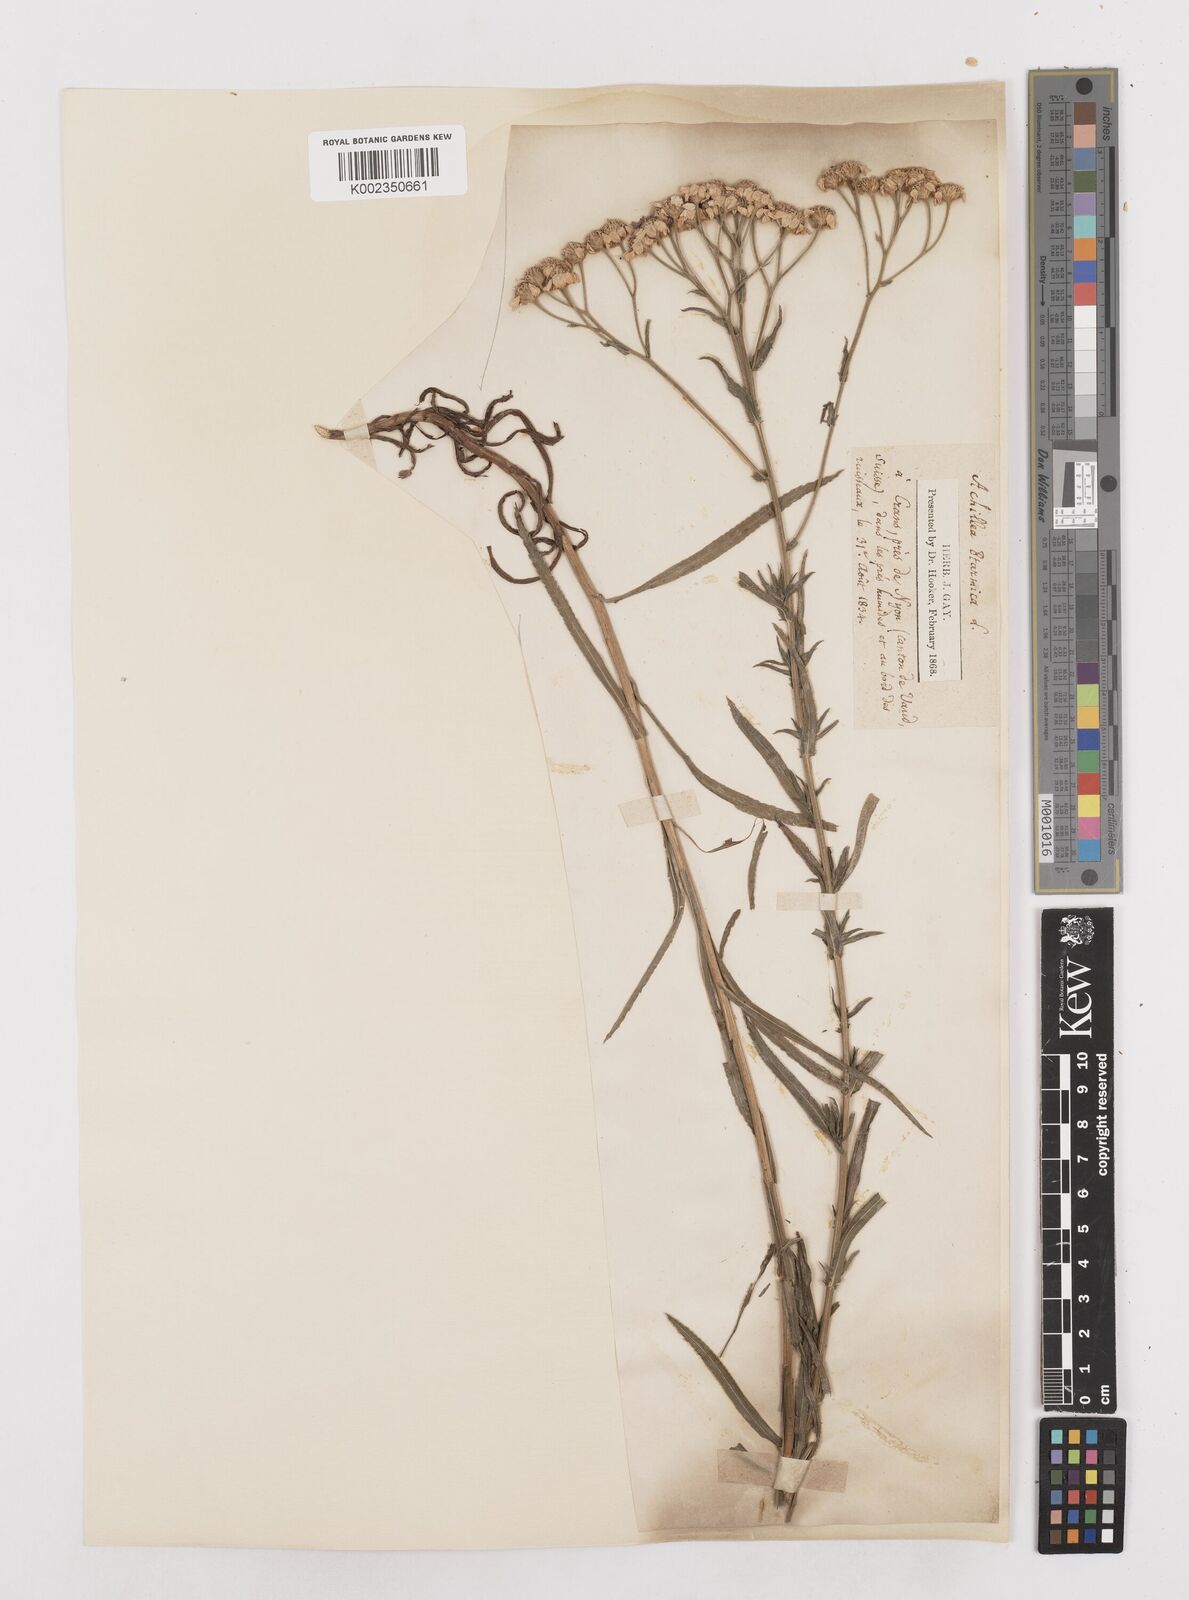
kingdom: Plantae
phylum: Tracheophyta
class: Magnoliopsida
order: Asterales
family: Asteraceae
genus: Achillea
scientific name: Achillea ptarmica
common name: Sneezeweed
